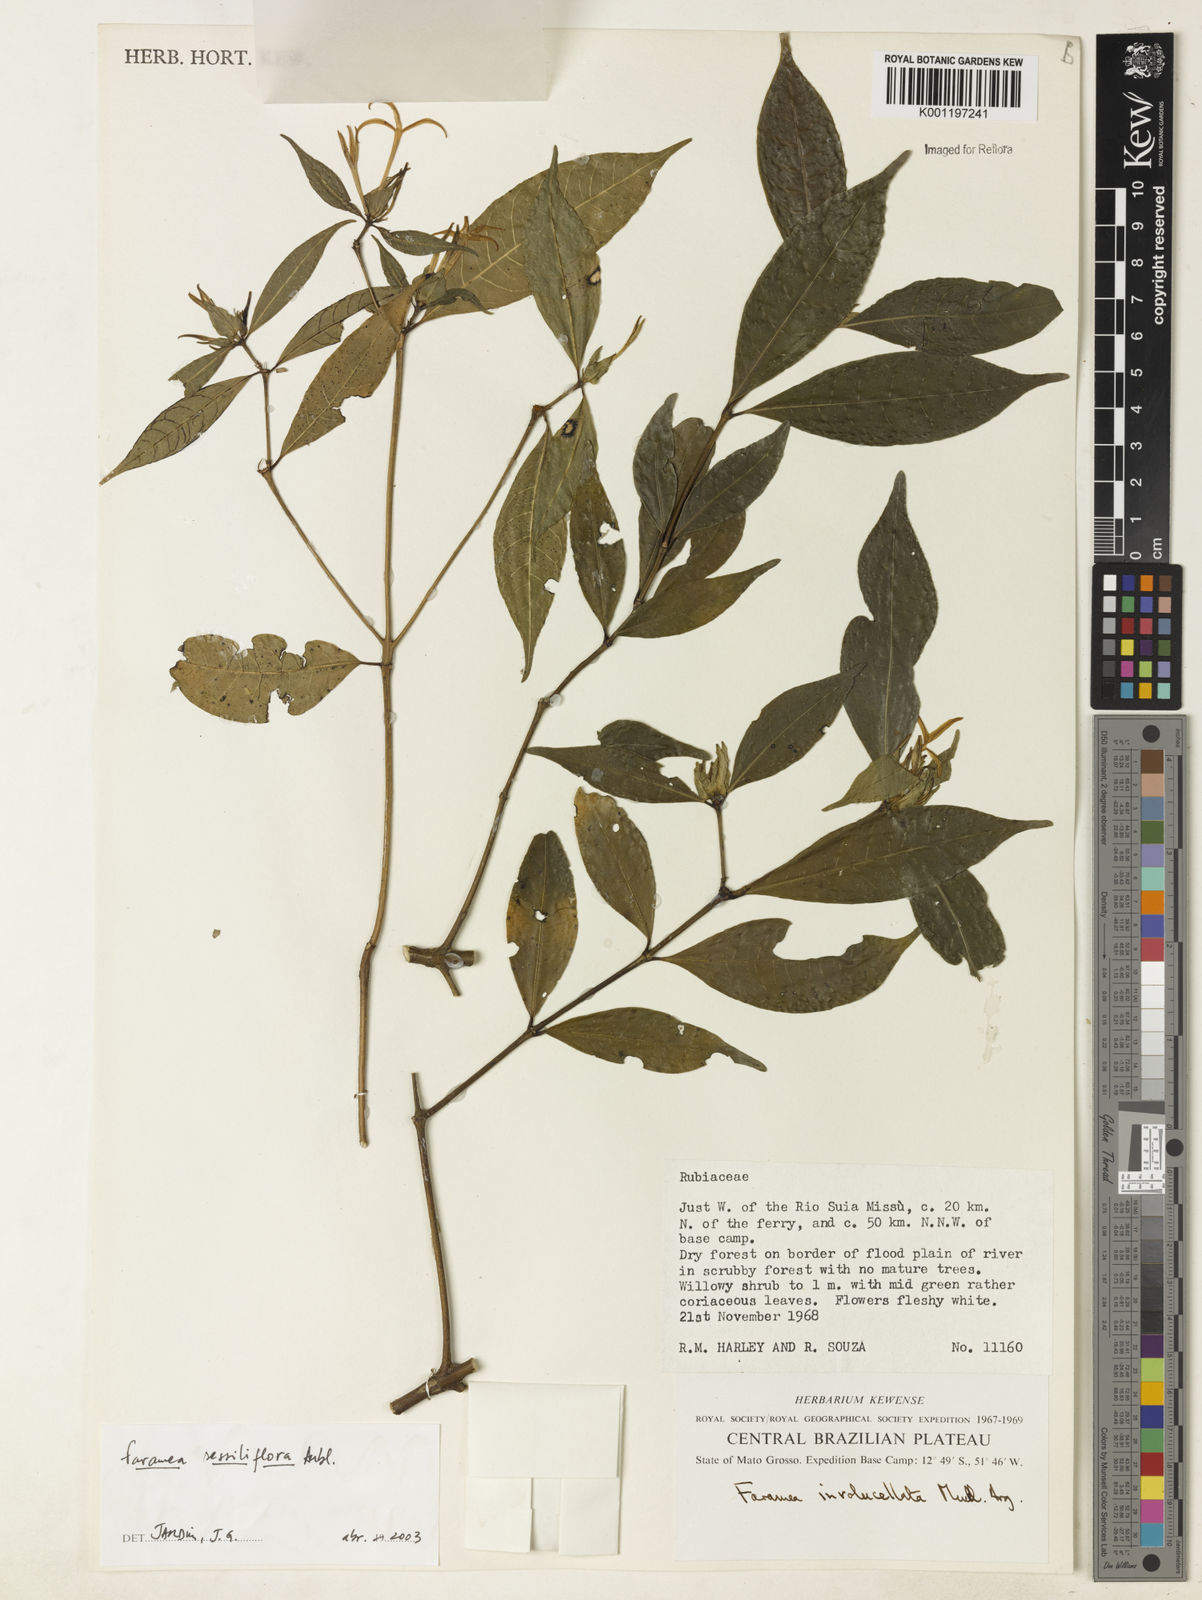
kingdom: Plantae
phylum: Tracheophyta
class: Magnoliopsida
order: Gentianales
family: Rubiaceae
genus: Faramea
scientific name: Faramea sessilifolia
